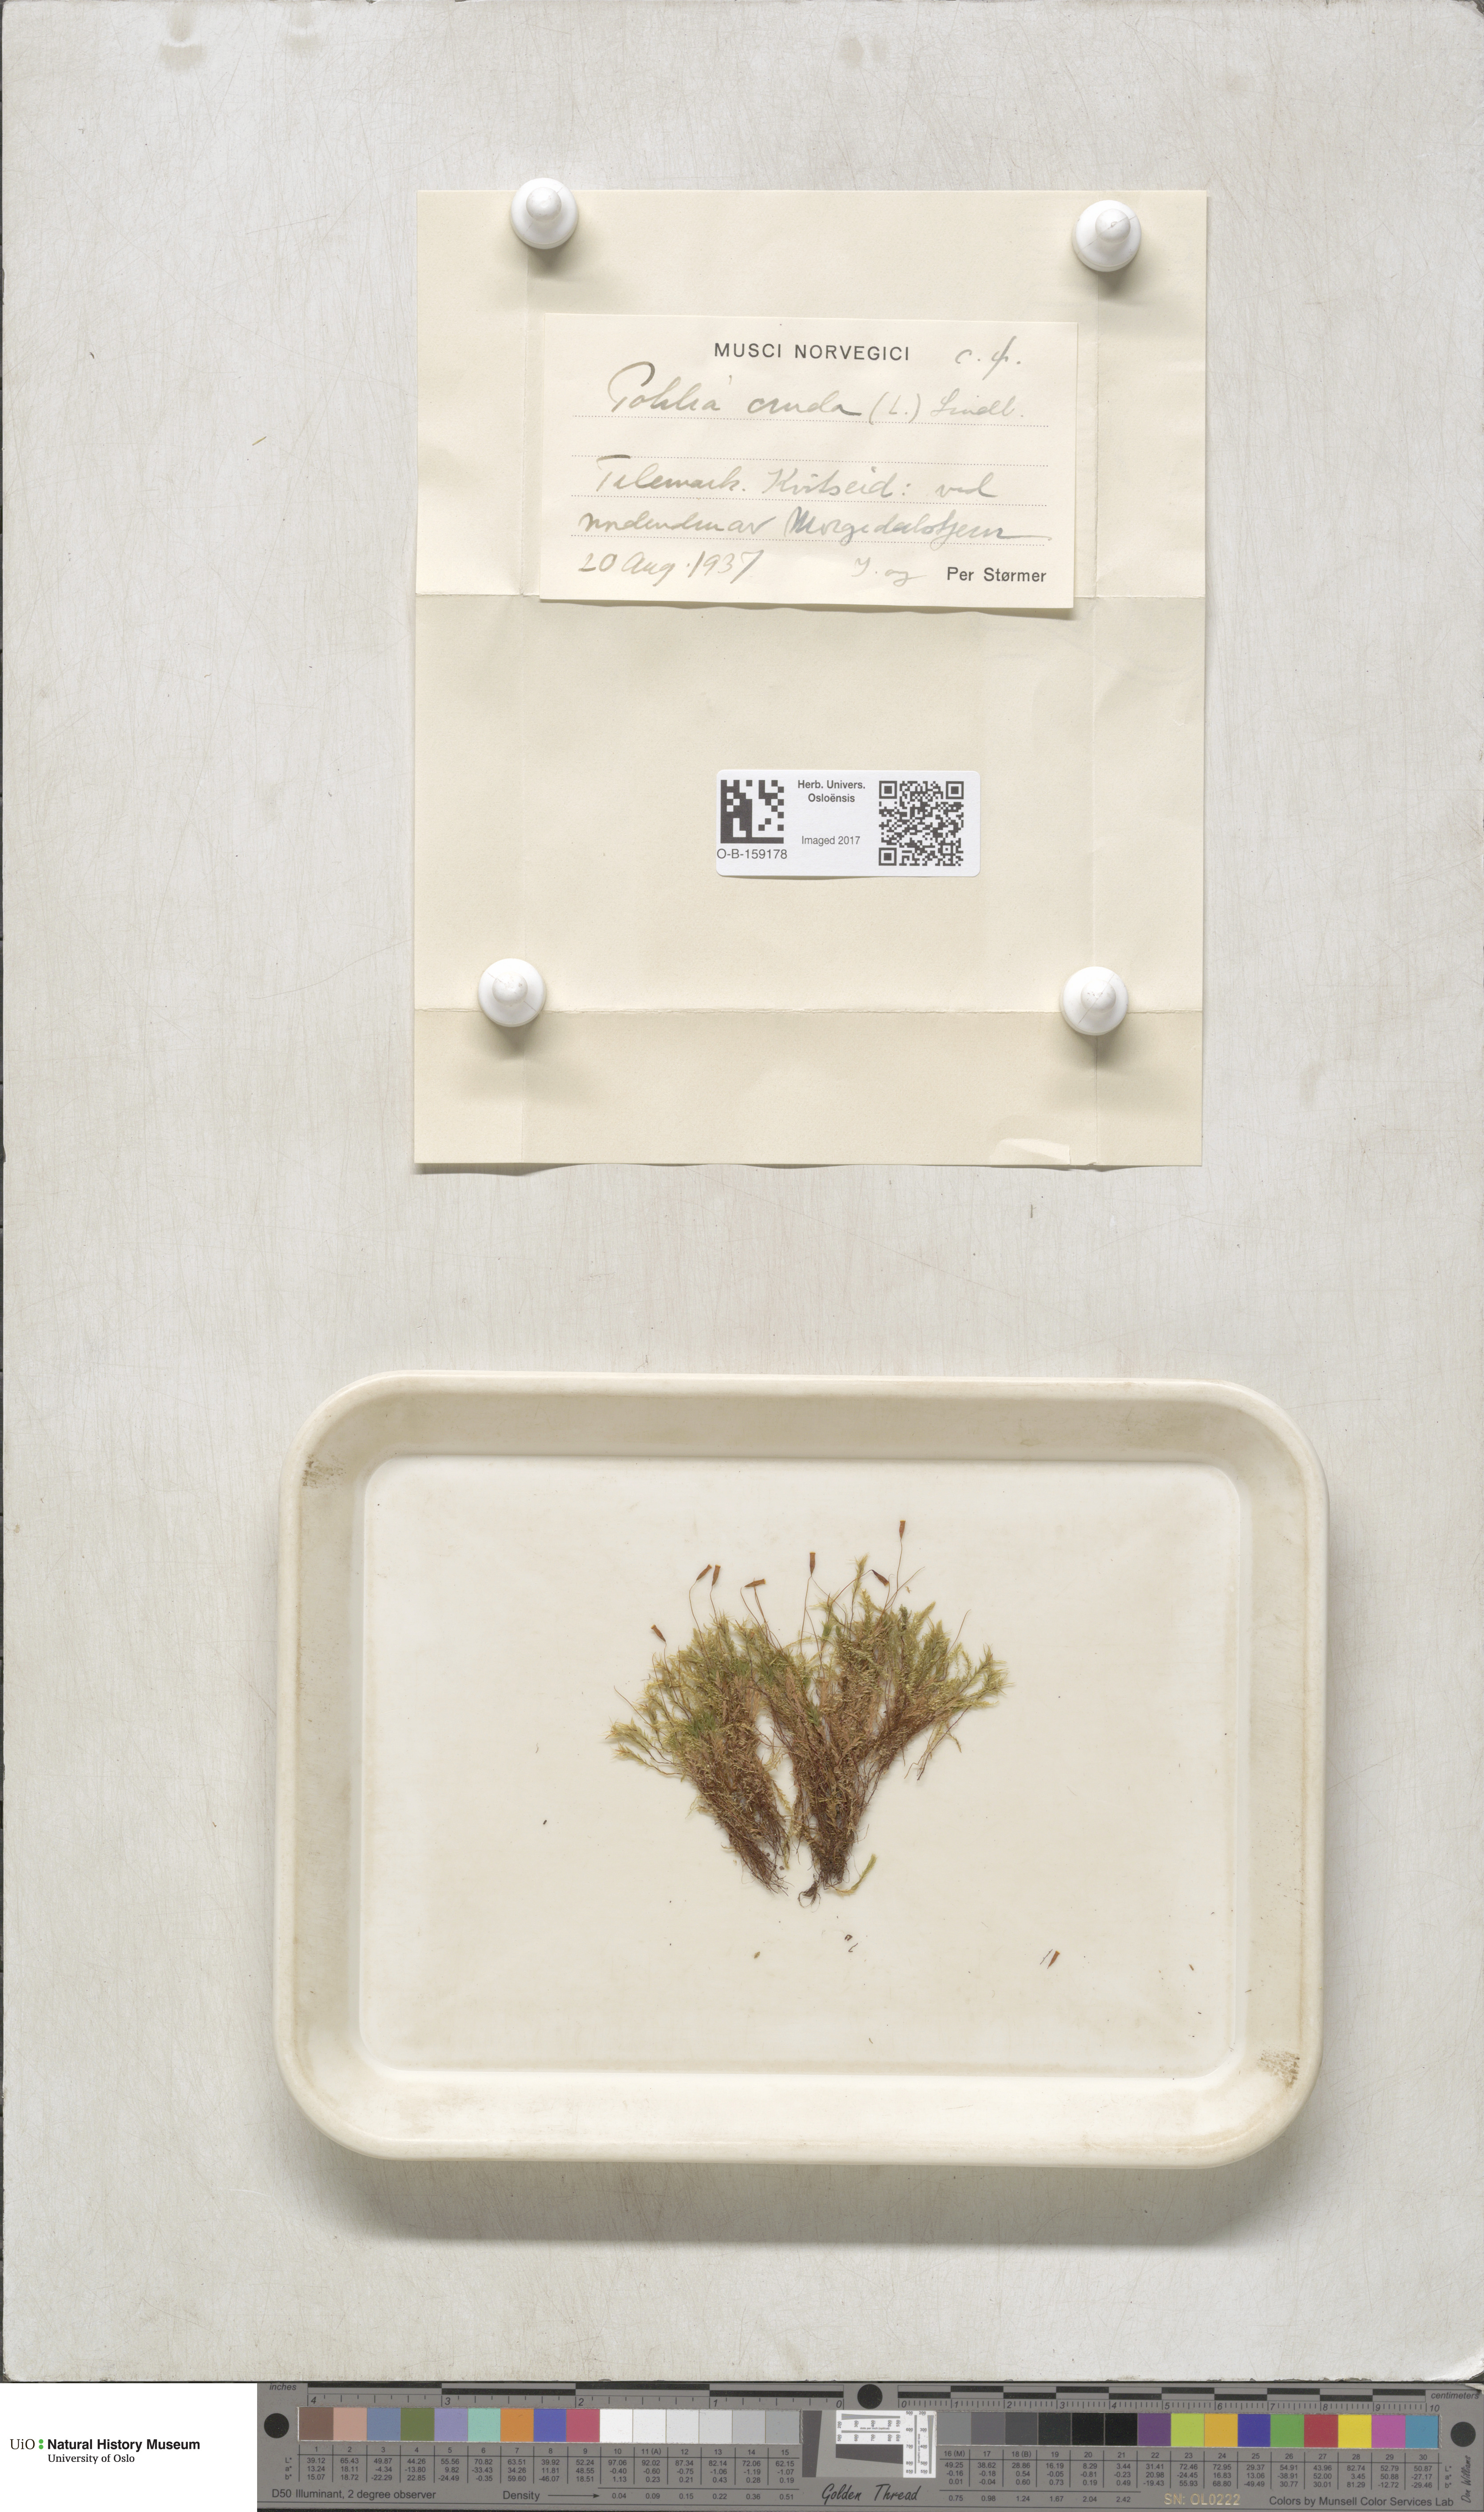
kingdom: Plantae
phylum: Bryophyta
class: Bryopsida
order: Bryales
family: Mniaceae
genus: Pohlia
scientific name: Pohlia cruda
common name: Opal nodding moss
